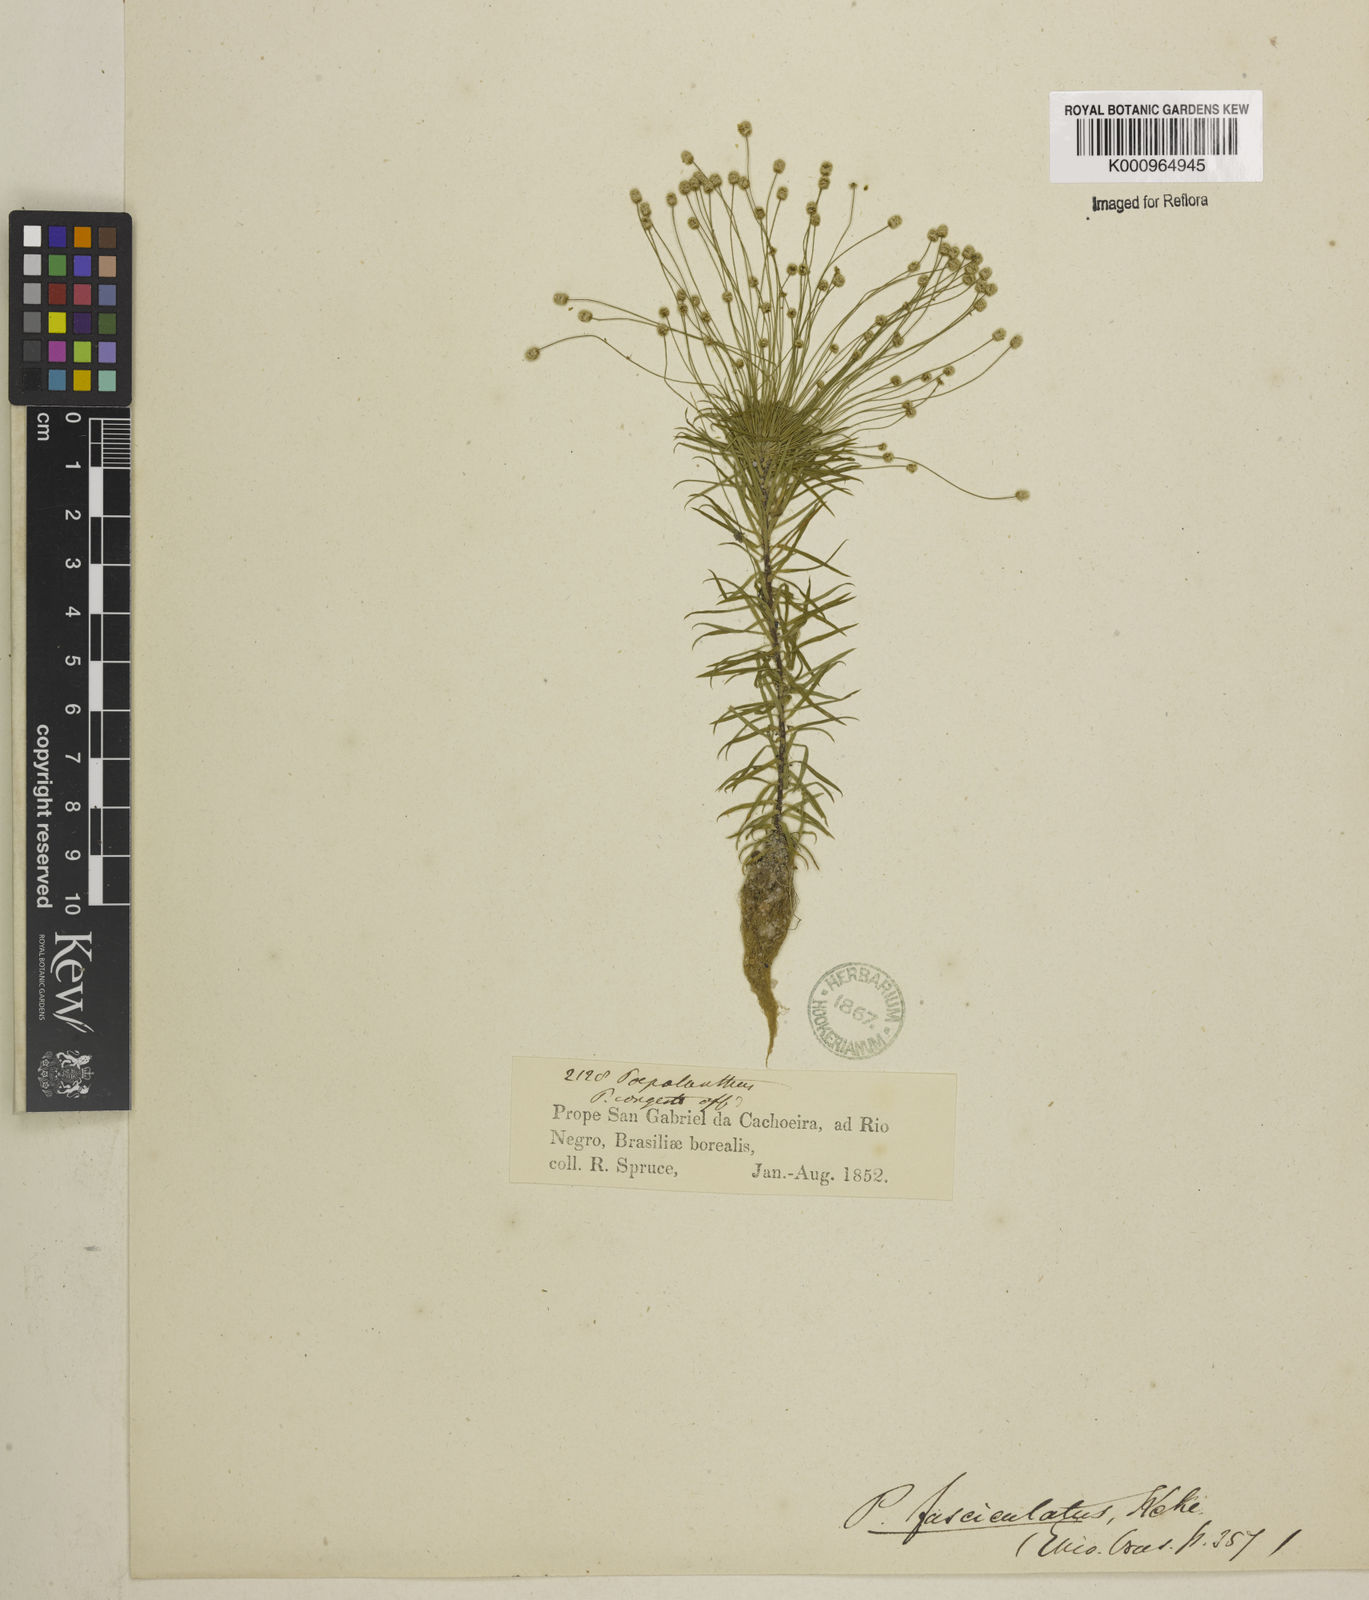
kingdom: Plantae
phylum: Tracheophyta
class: Liliopsida
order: Poales
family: Eriocaulaceae
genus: Paepalanthus
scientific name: Paepalanthus fasciculatus
